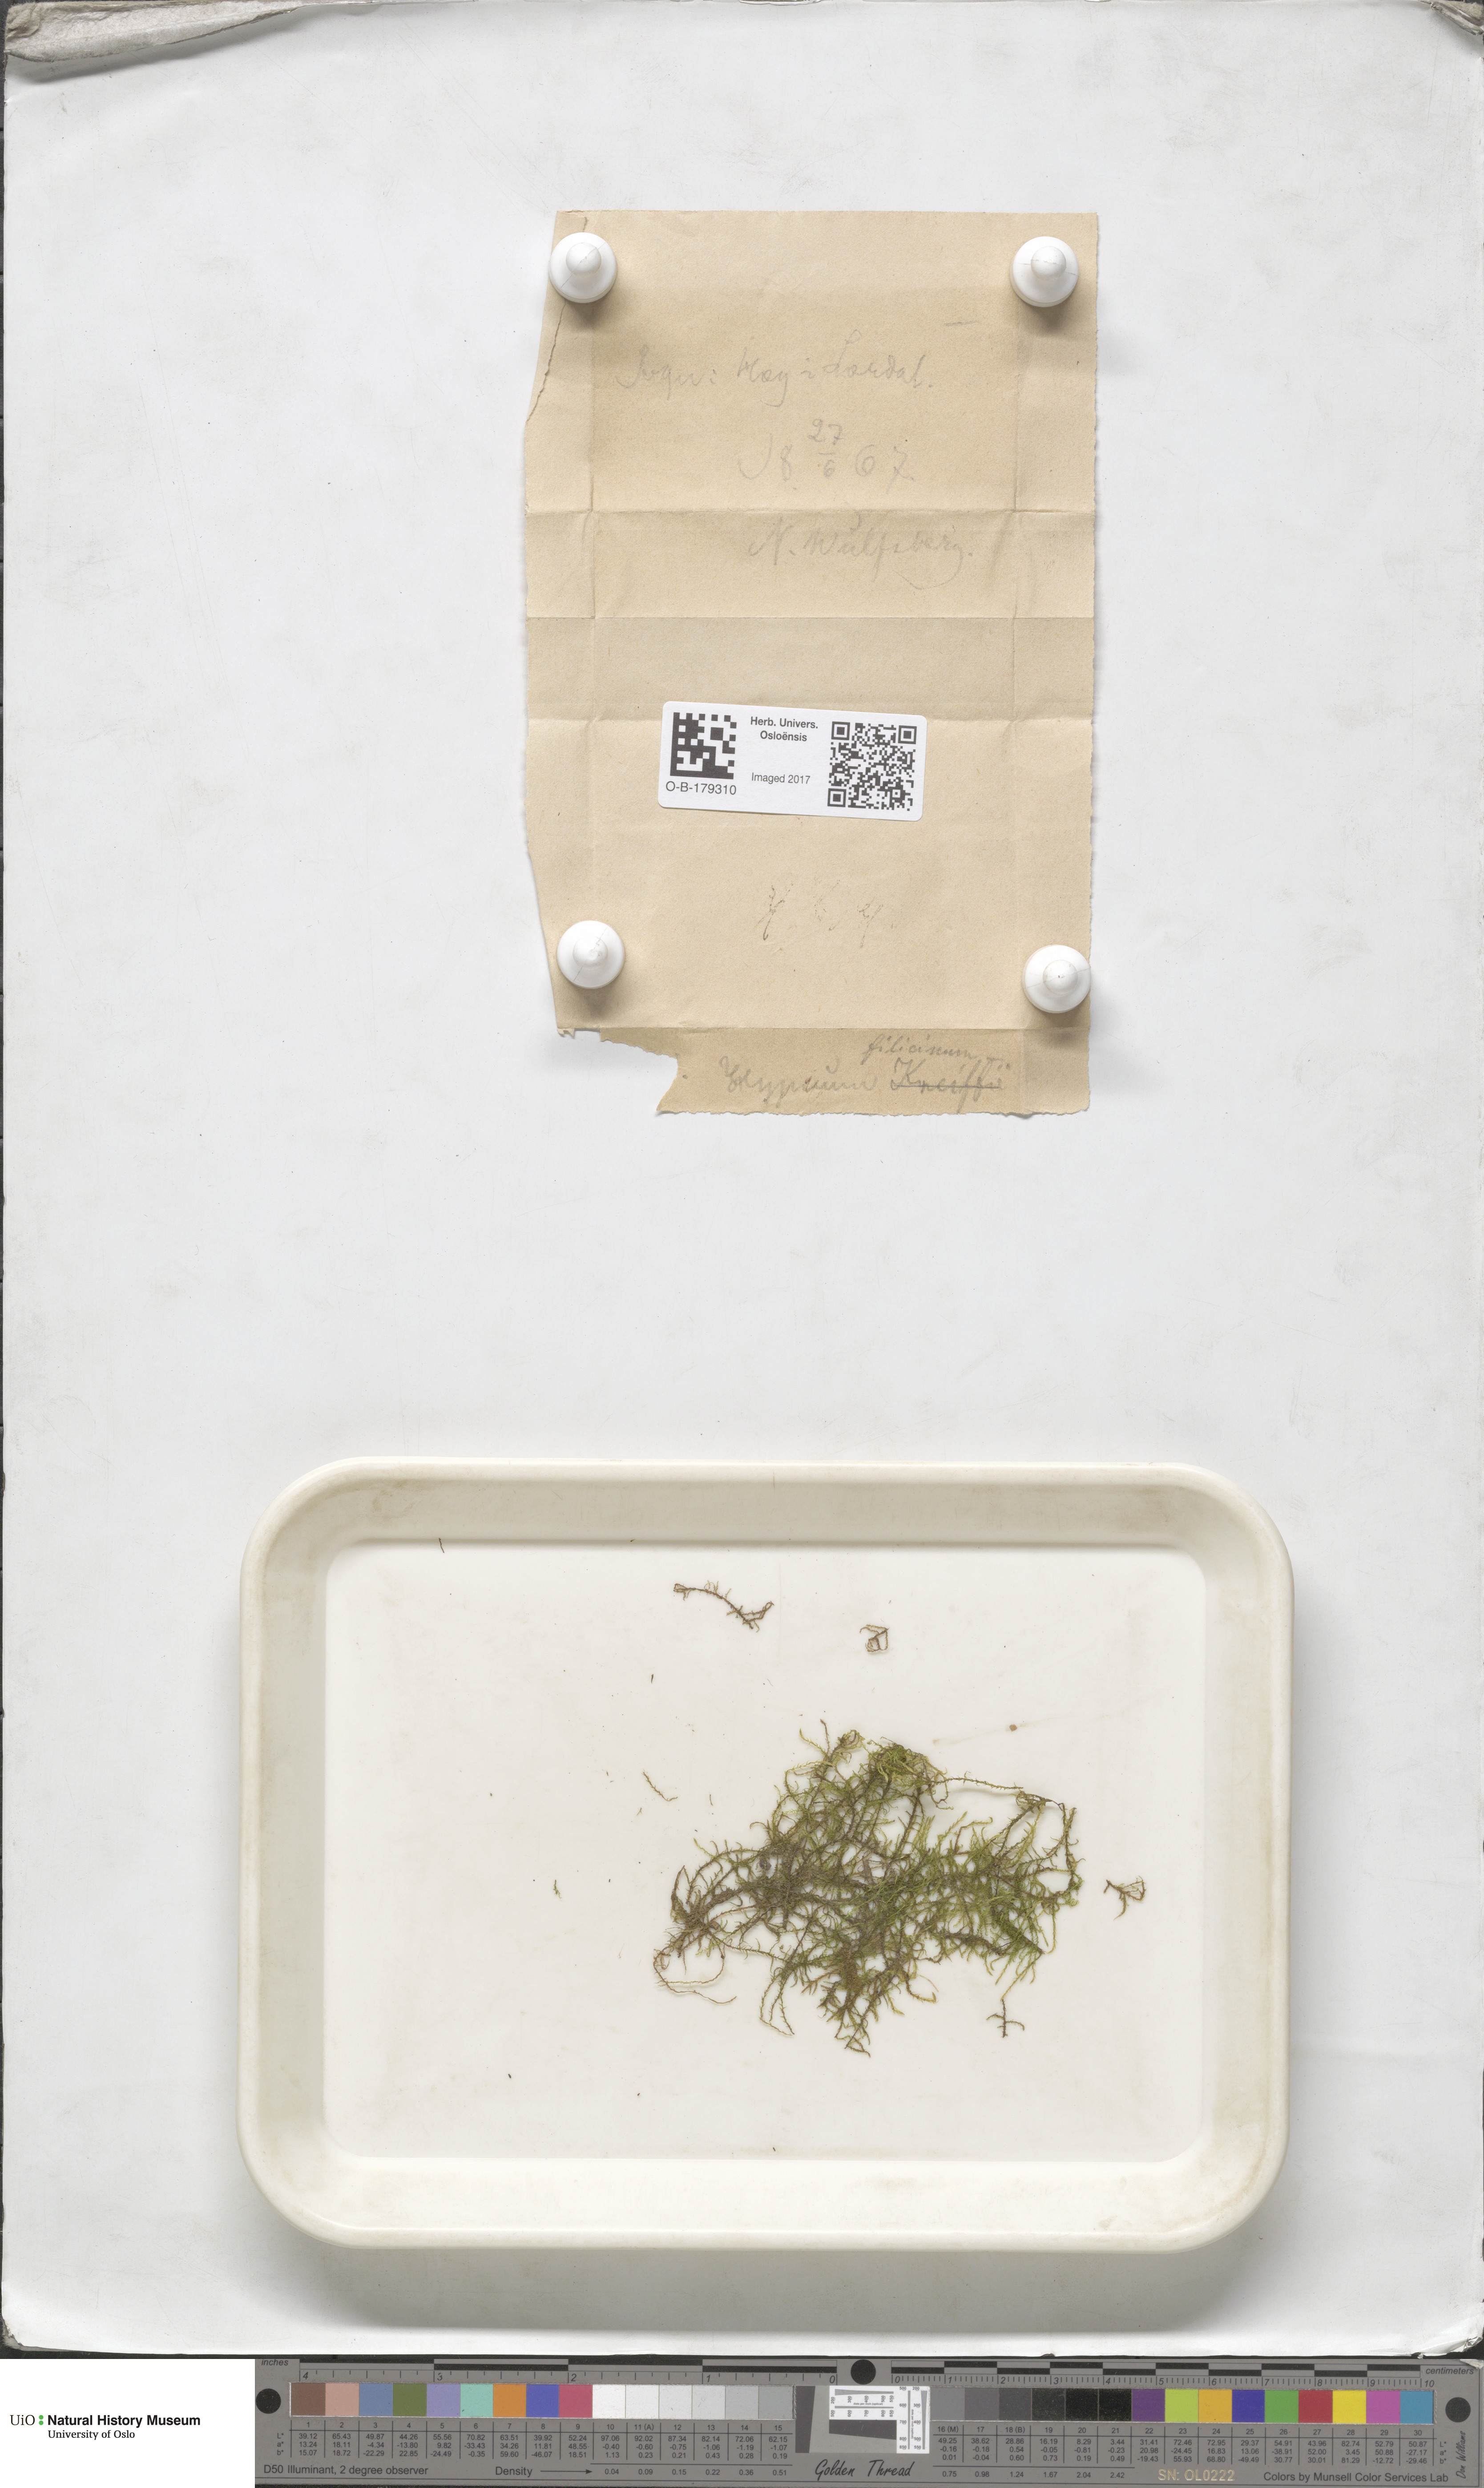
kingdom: Plantae
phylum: Bryophyta
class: Bryopsida
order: Hypnales
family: Amblystegiaceae
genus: Cratoneuron
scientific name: Cratoneuron filicinum
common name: Fern-leaved hook moss
